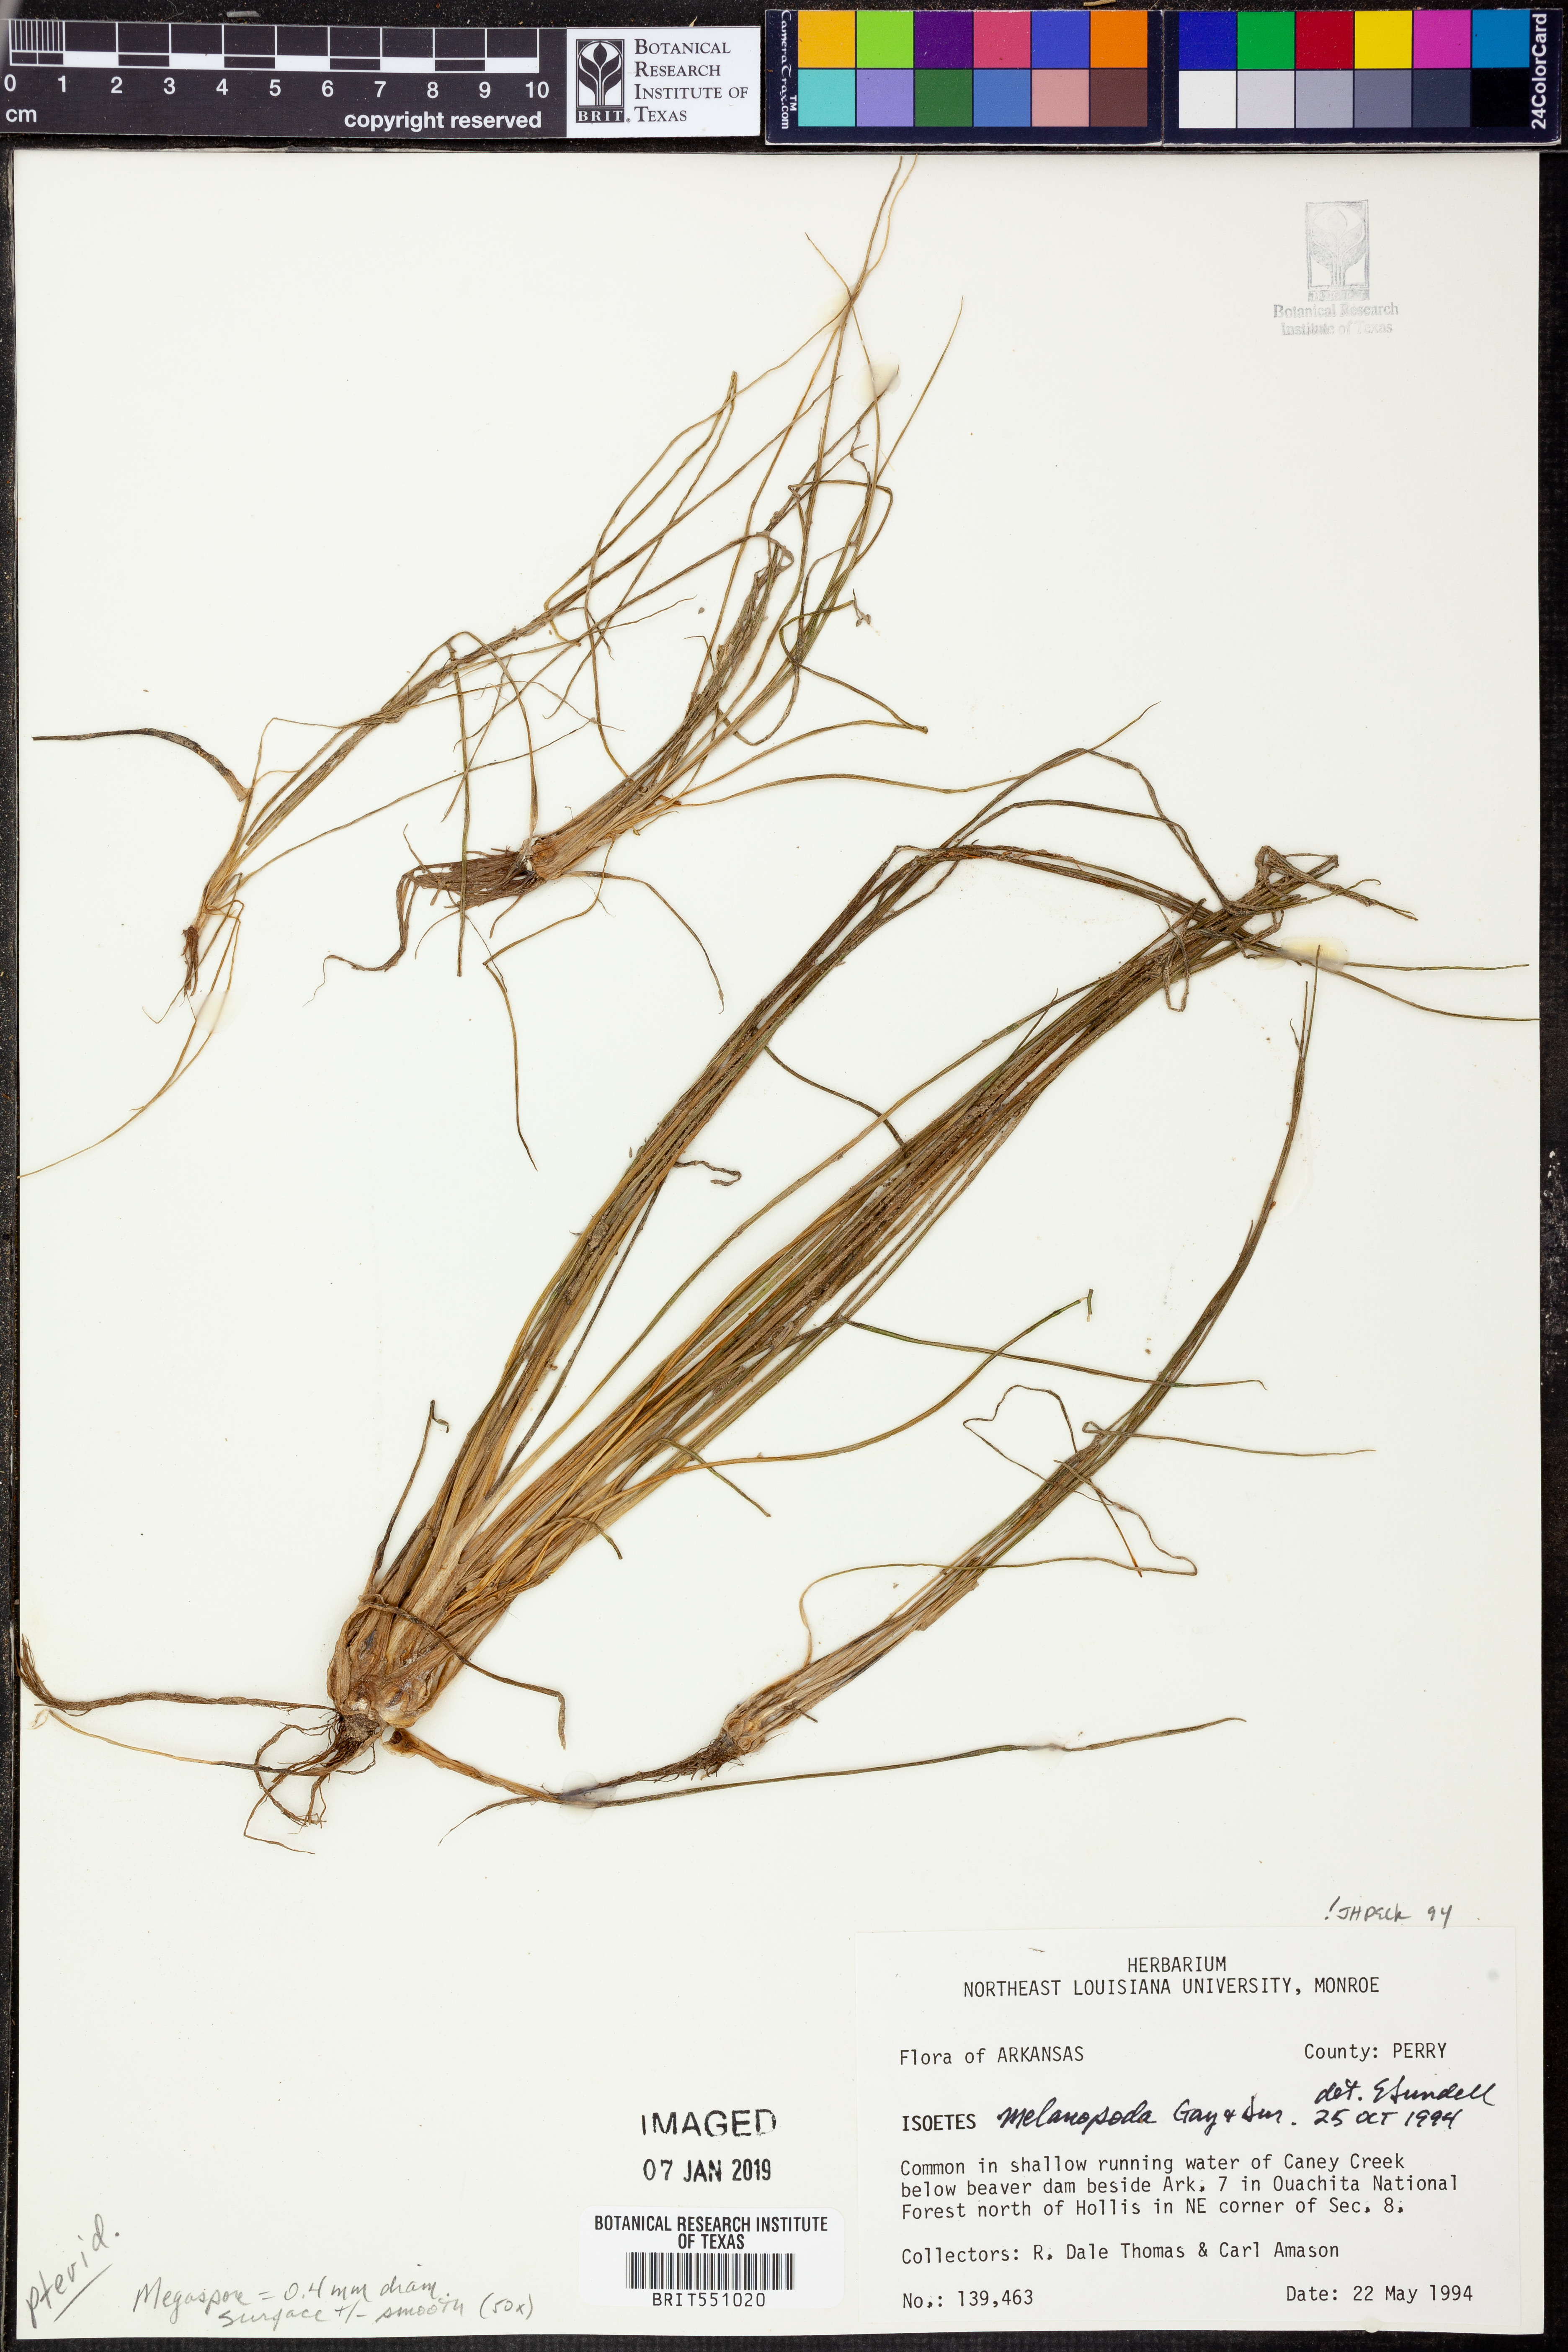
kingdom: Plantae
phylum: Tracheophyta
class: Lycopodiopsida
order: Isoetales
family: Isoetaceae
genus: Isoetes
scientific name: Isoetes melanopoda
